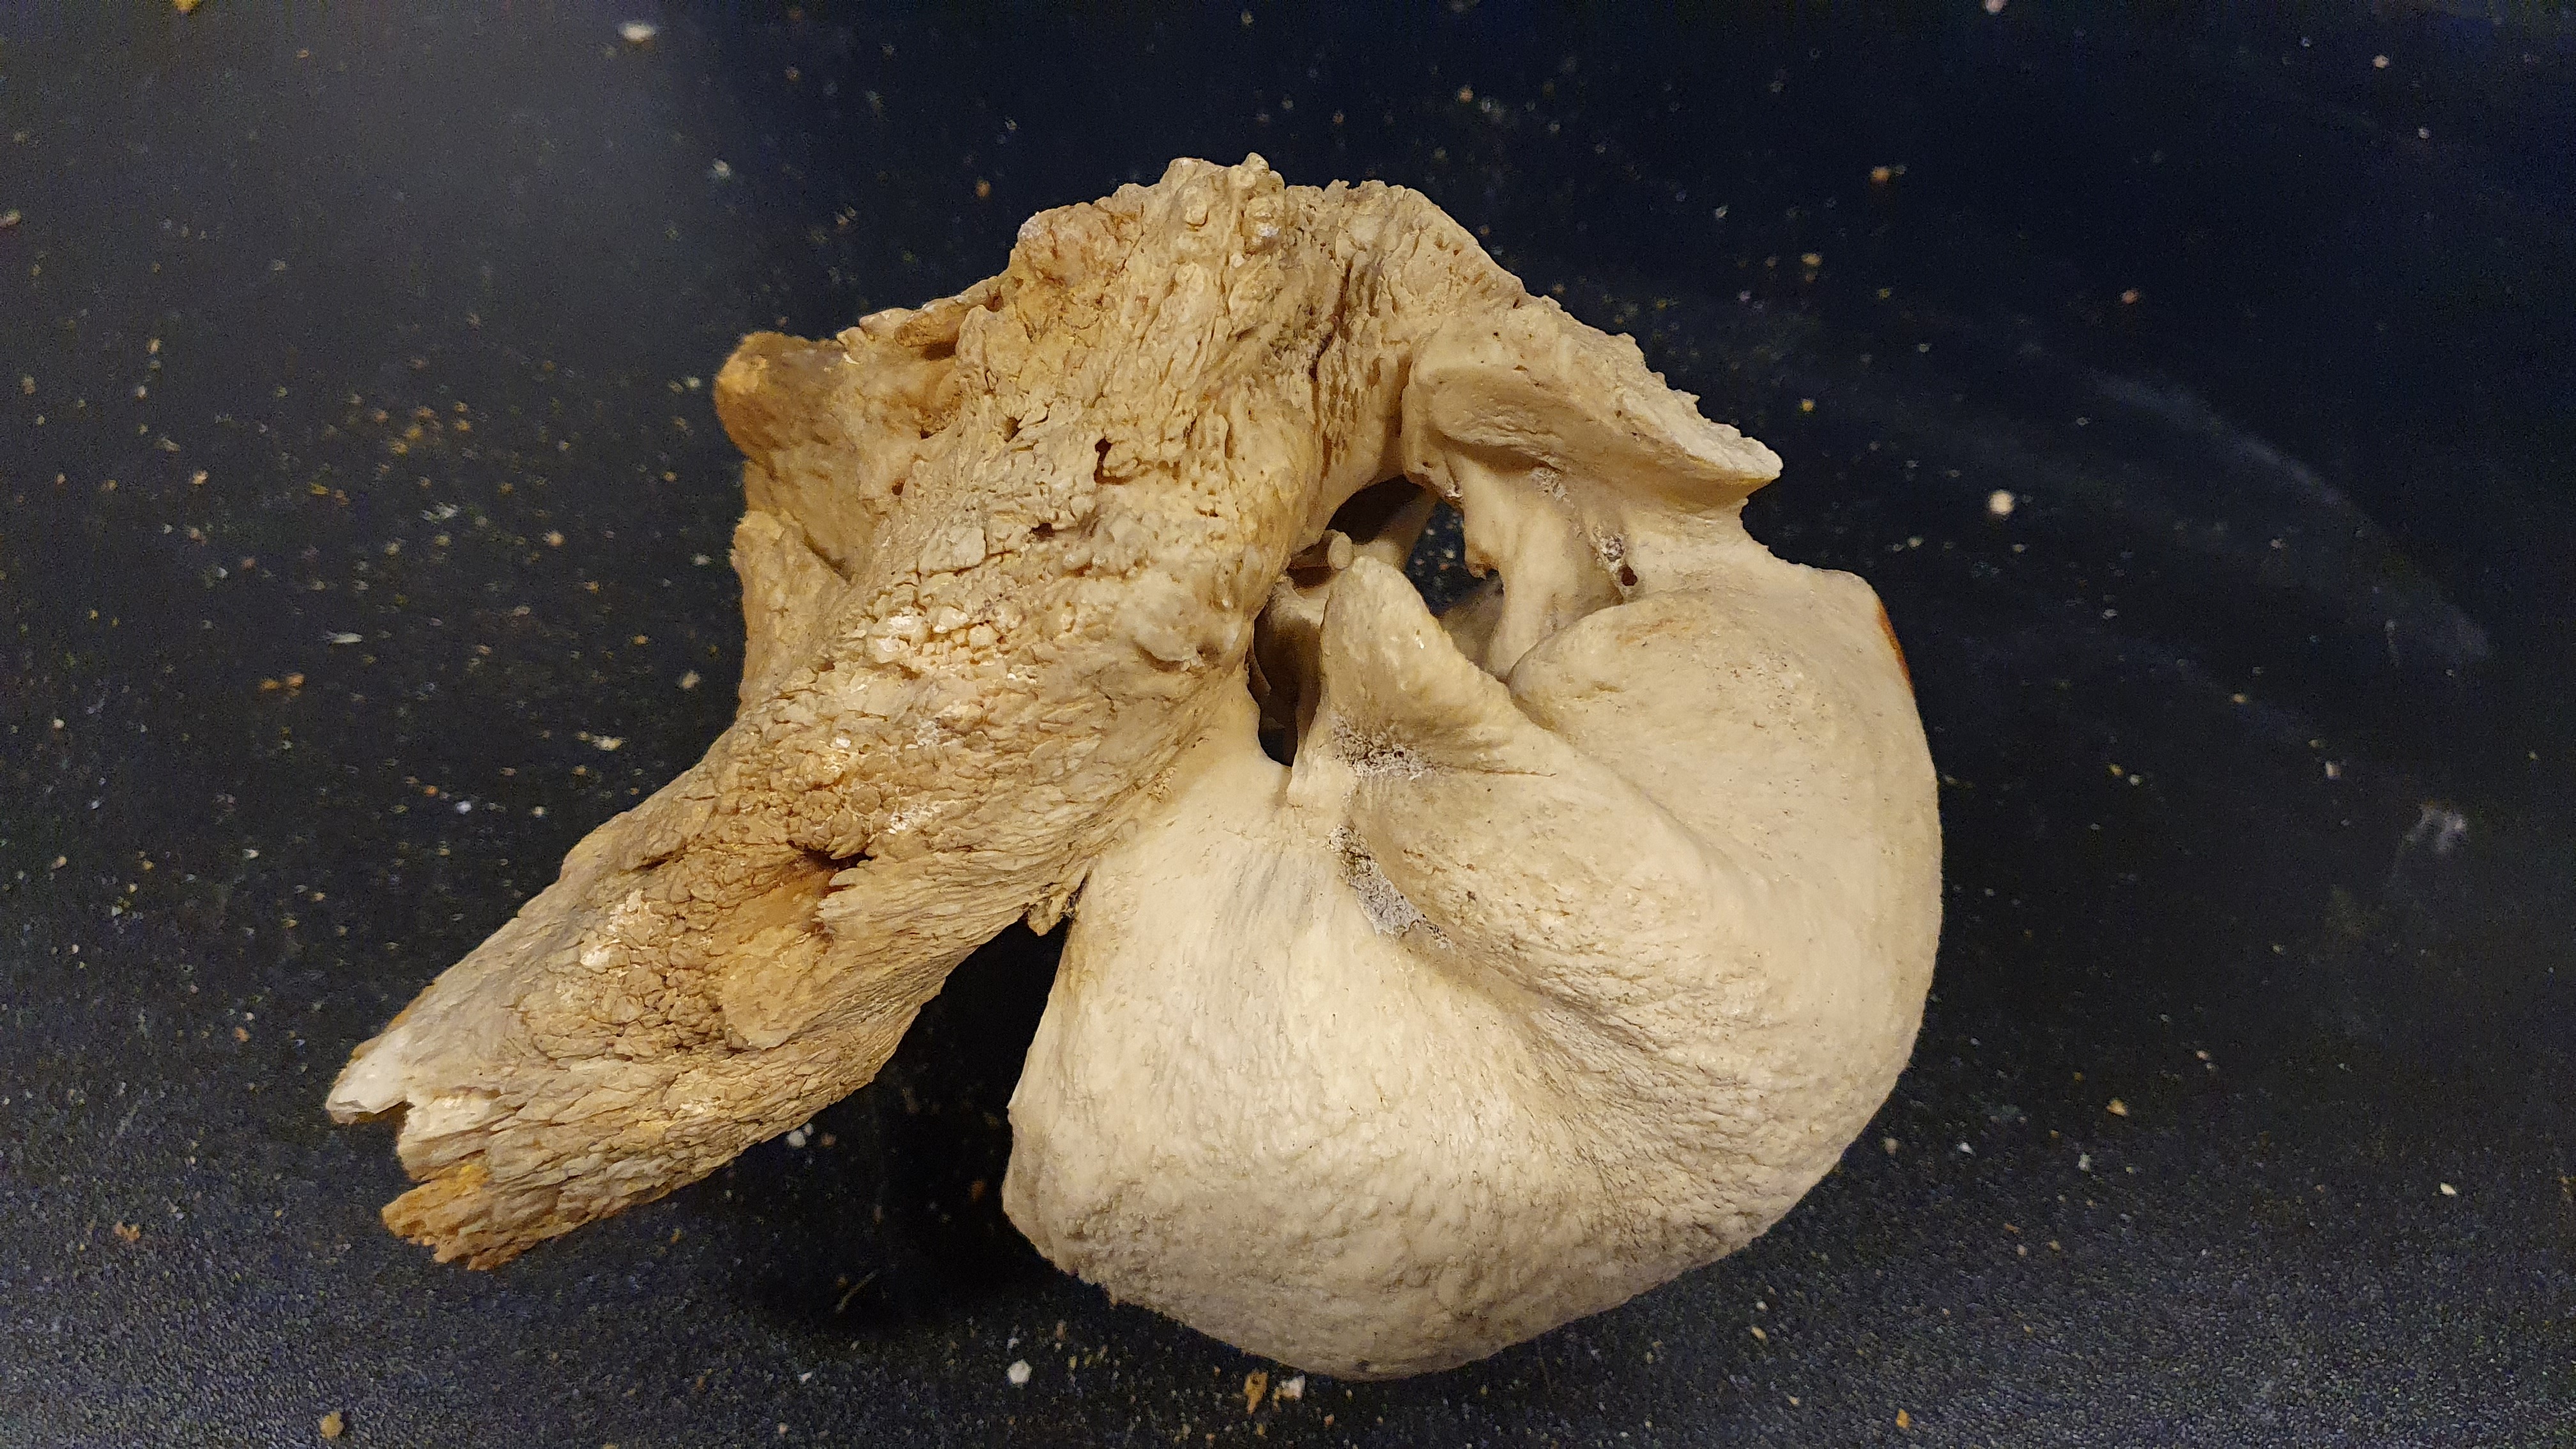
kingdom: Animalia
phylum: Chordata
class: Mammalia
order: Cetacea
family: Balaenopteridae
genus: Megaptera
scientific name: Megaptera novaeangliae
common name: Humpback whale
